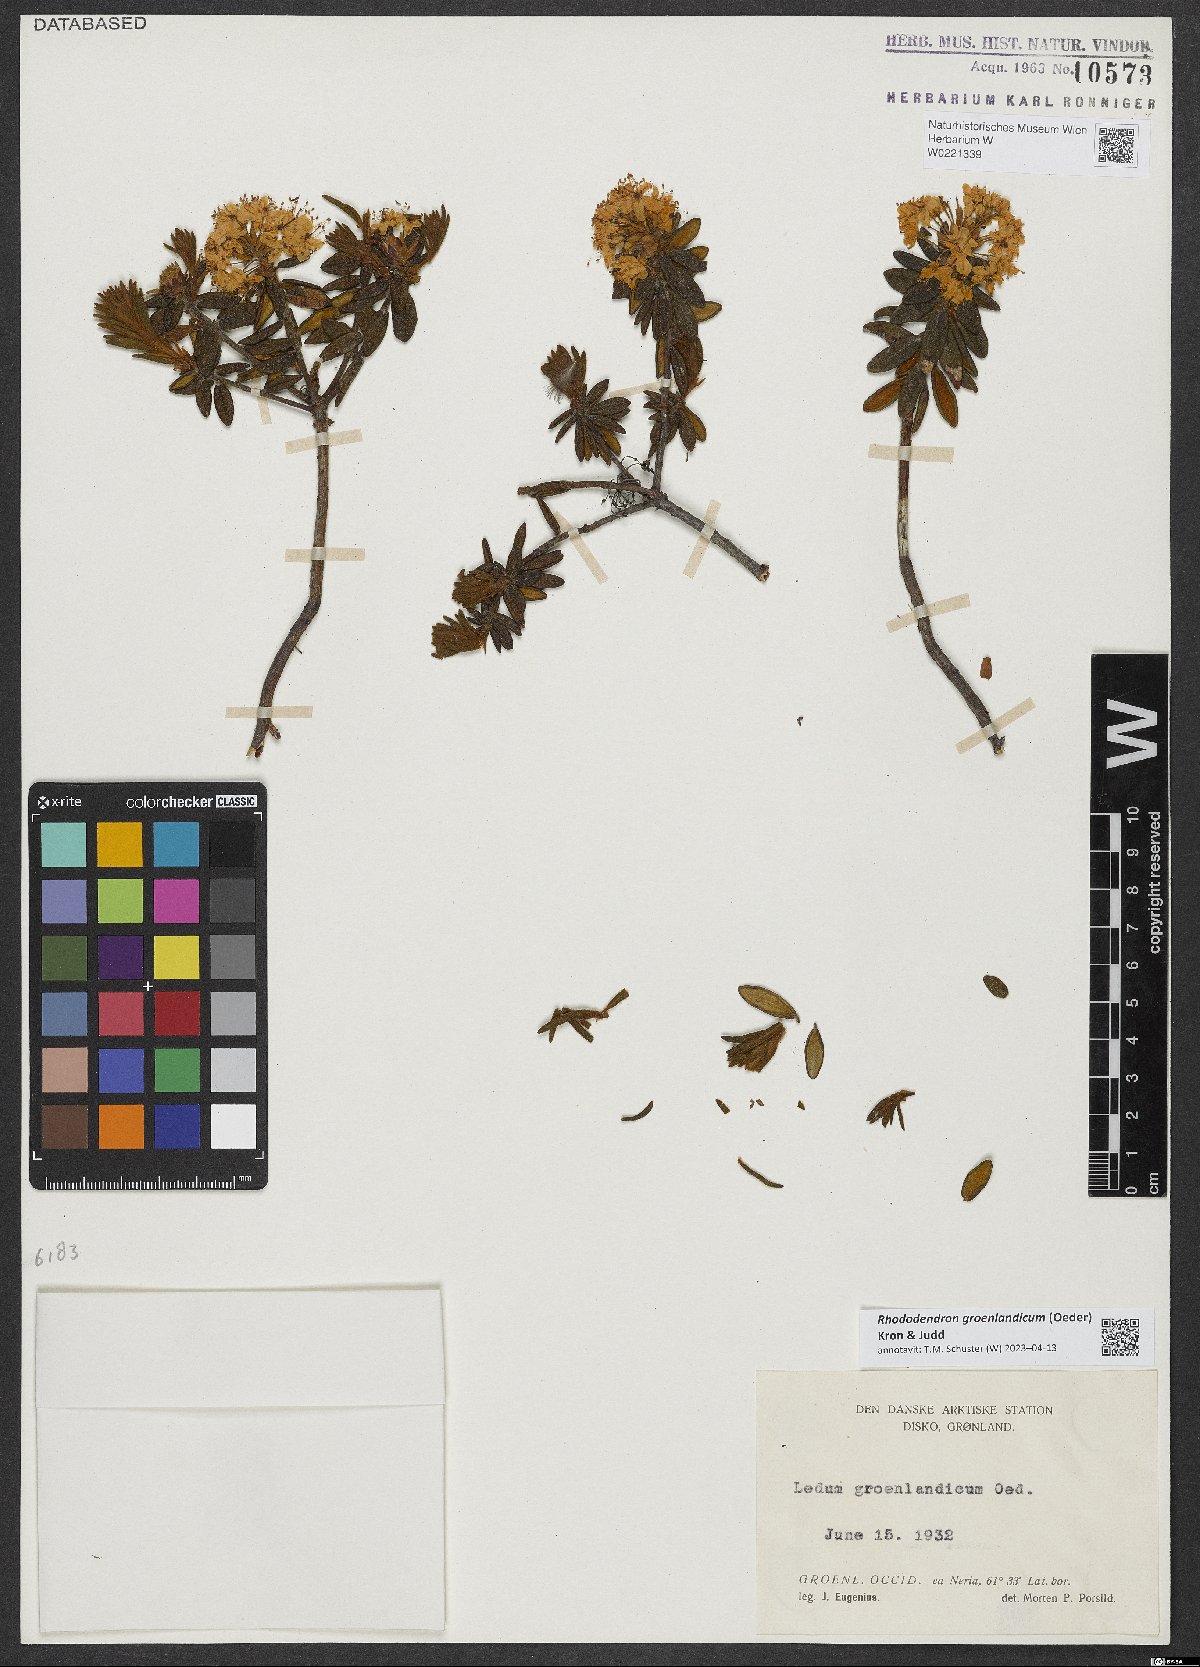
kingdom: Plantae
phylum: Tracheophyta
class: Magnoliopsida
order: Ericales
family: Ericaceae
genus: Rhododendron
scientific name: Rhododendron groenlandicum
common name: Bog labrador tea
